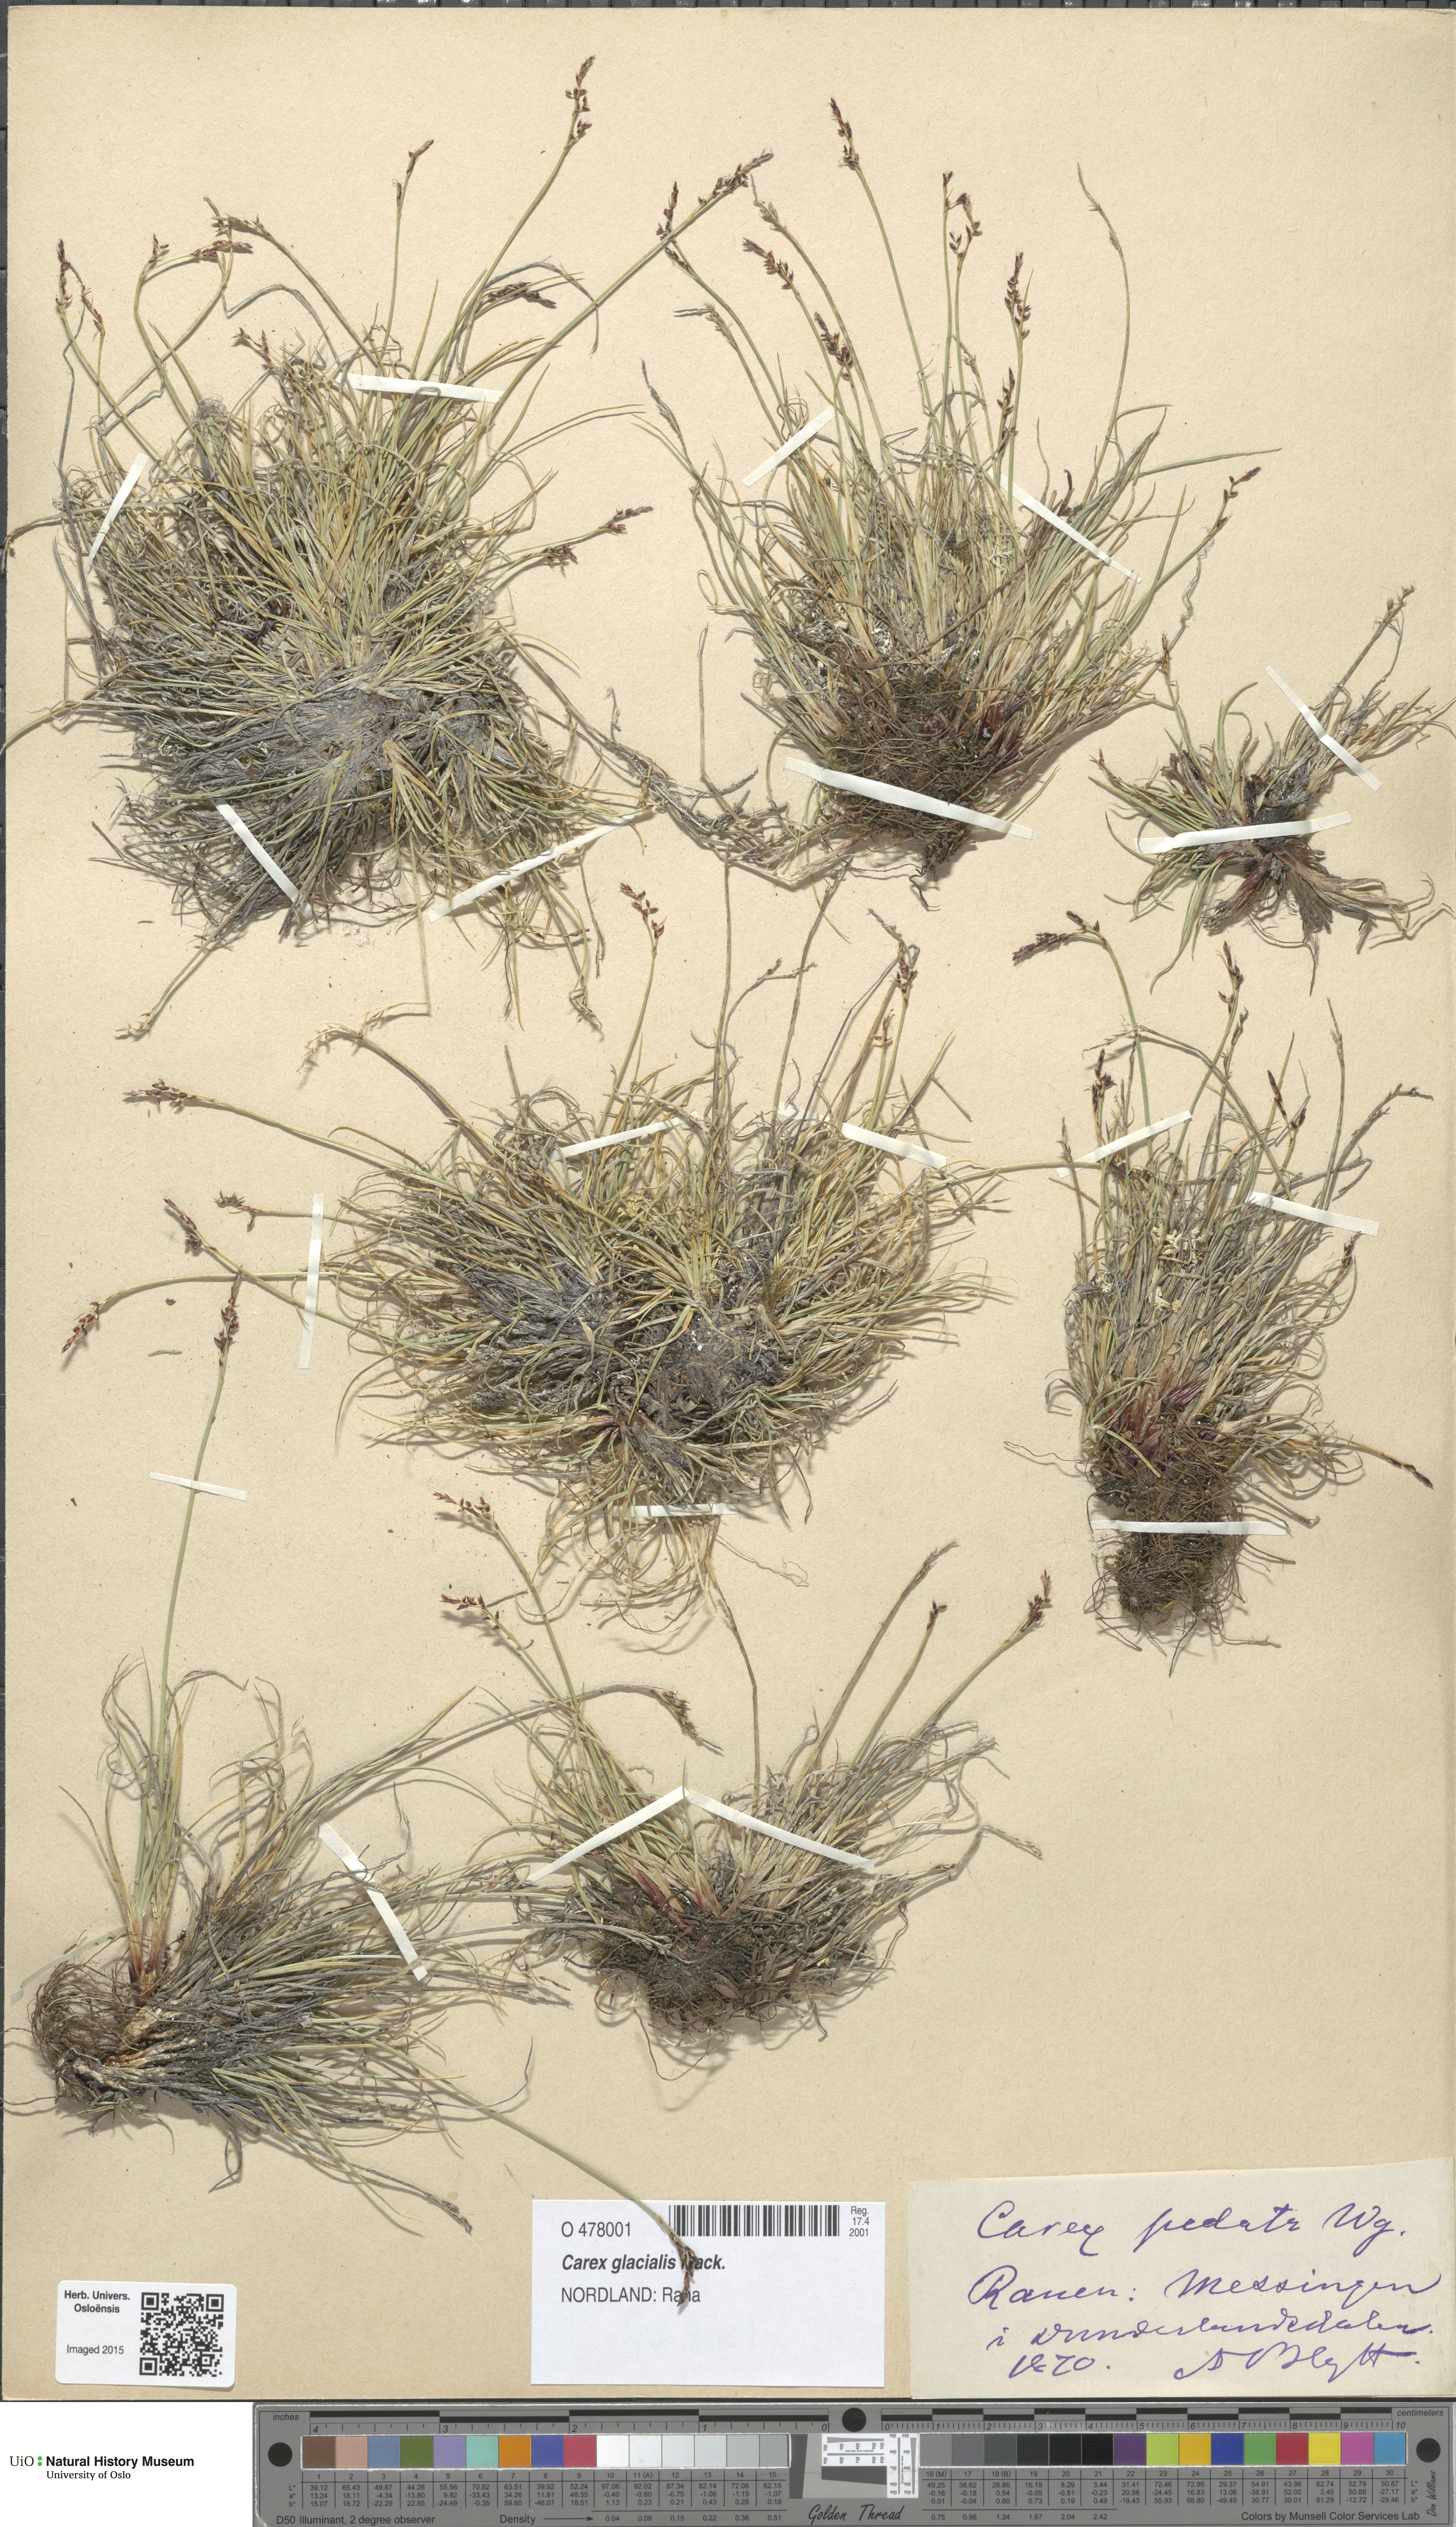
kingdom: Plantae
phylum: Tracheophyta
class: Liliopsida
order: Poales
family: Cyperaceae
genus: Carex
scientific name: Carex glacialis
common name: Newfoundland sedge
